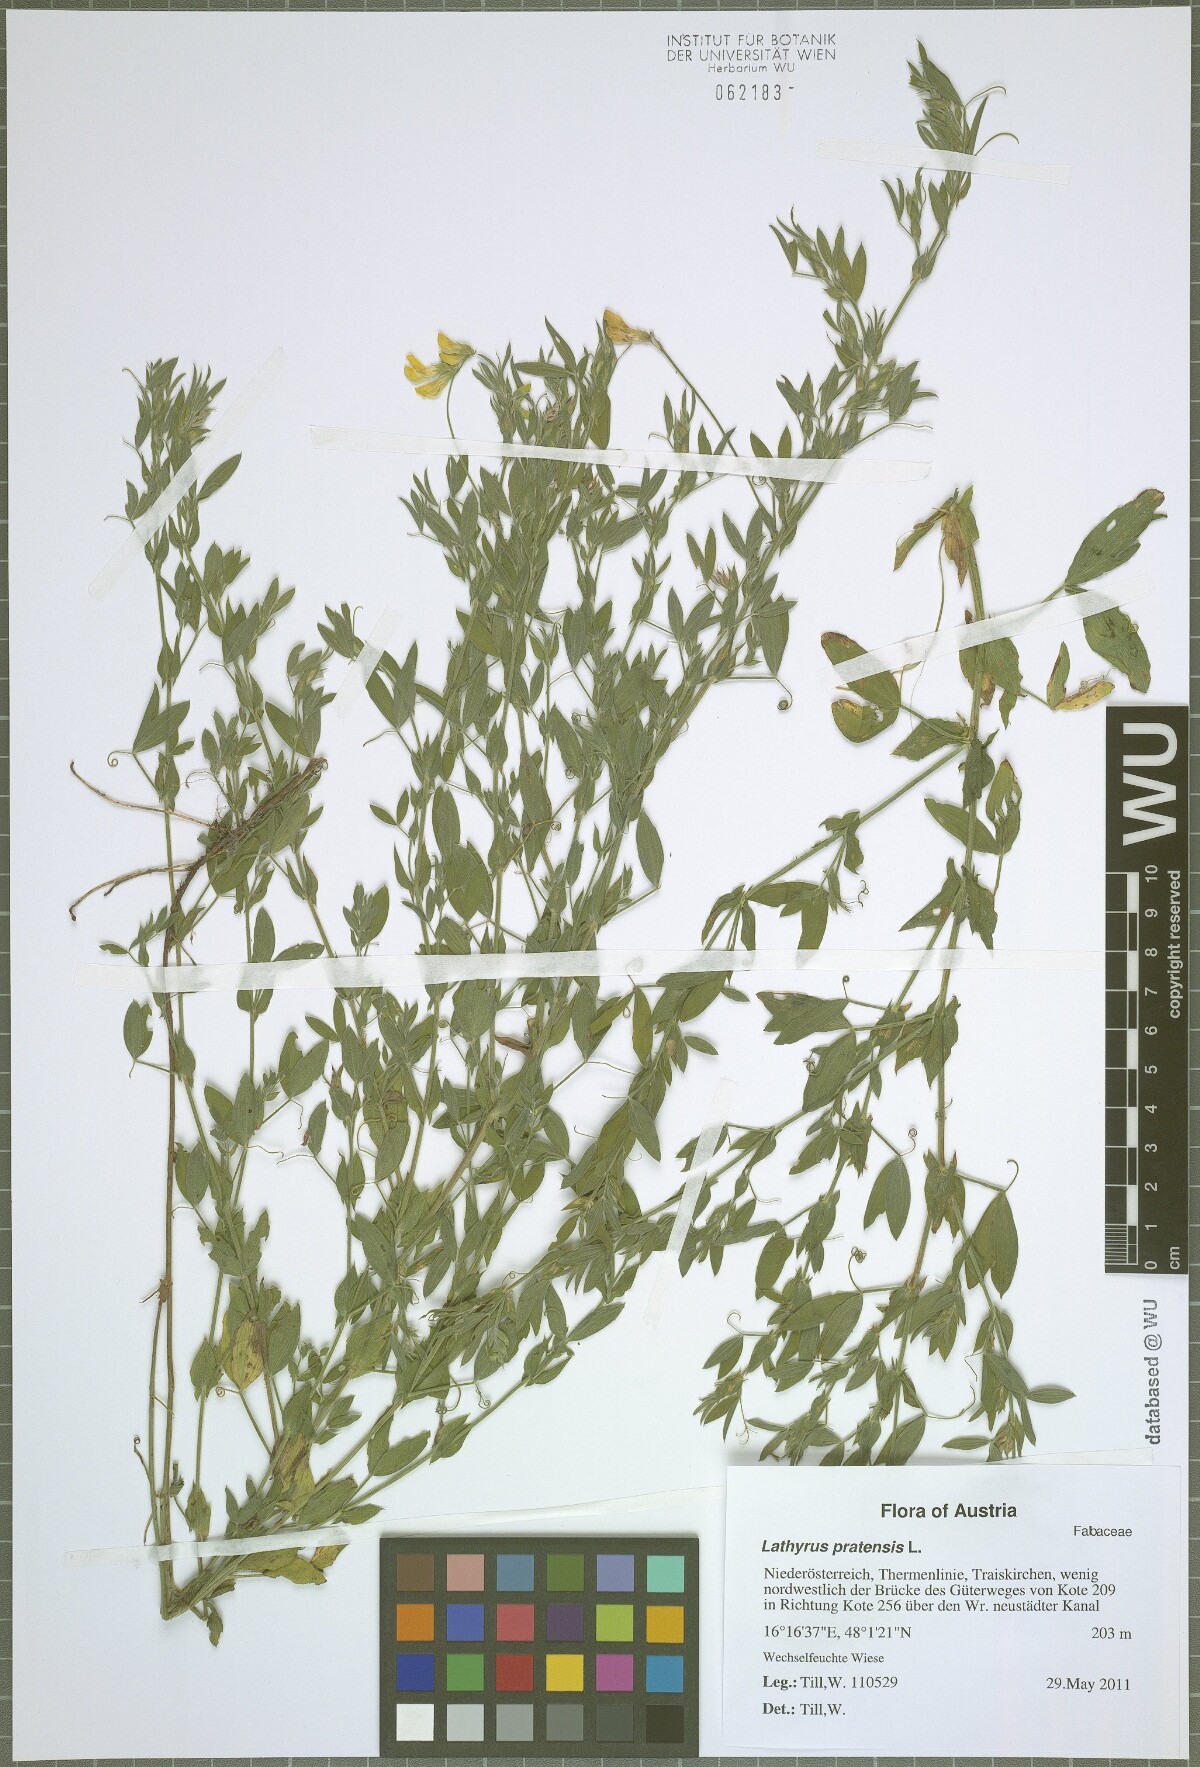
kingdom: Plantae
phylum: Tracheophyta
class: Magnoliopsida
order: Fabales
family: Fabaceae
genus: Lathyrus
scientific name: Lathyrus pratensis
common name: Meadow vetchling
